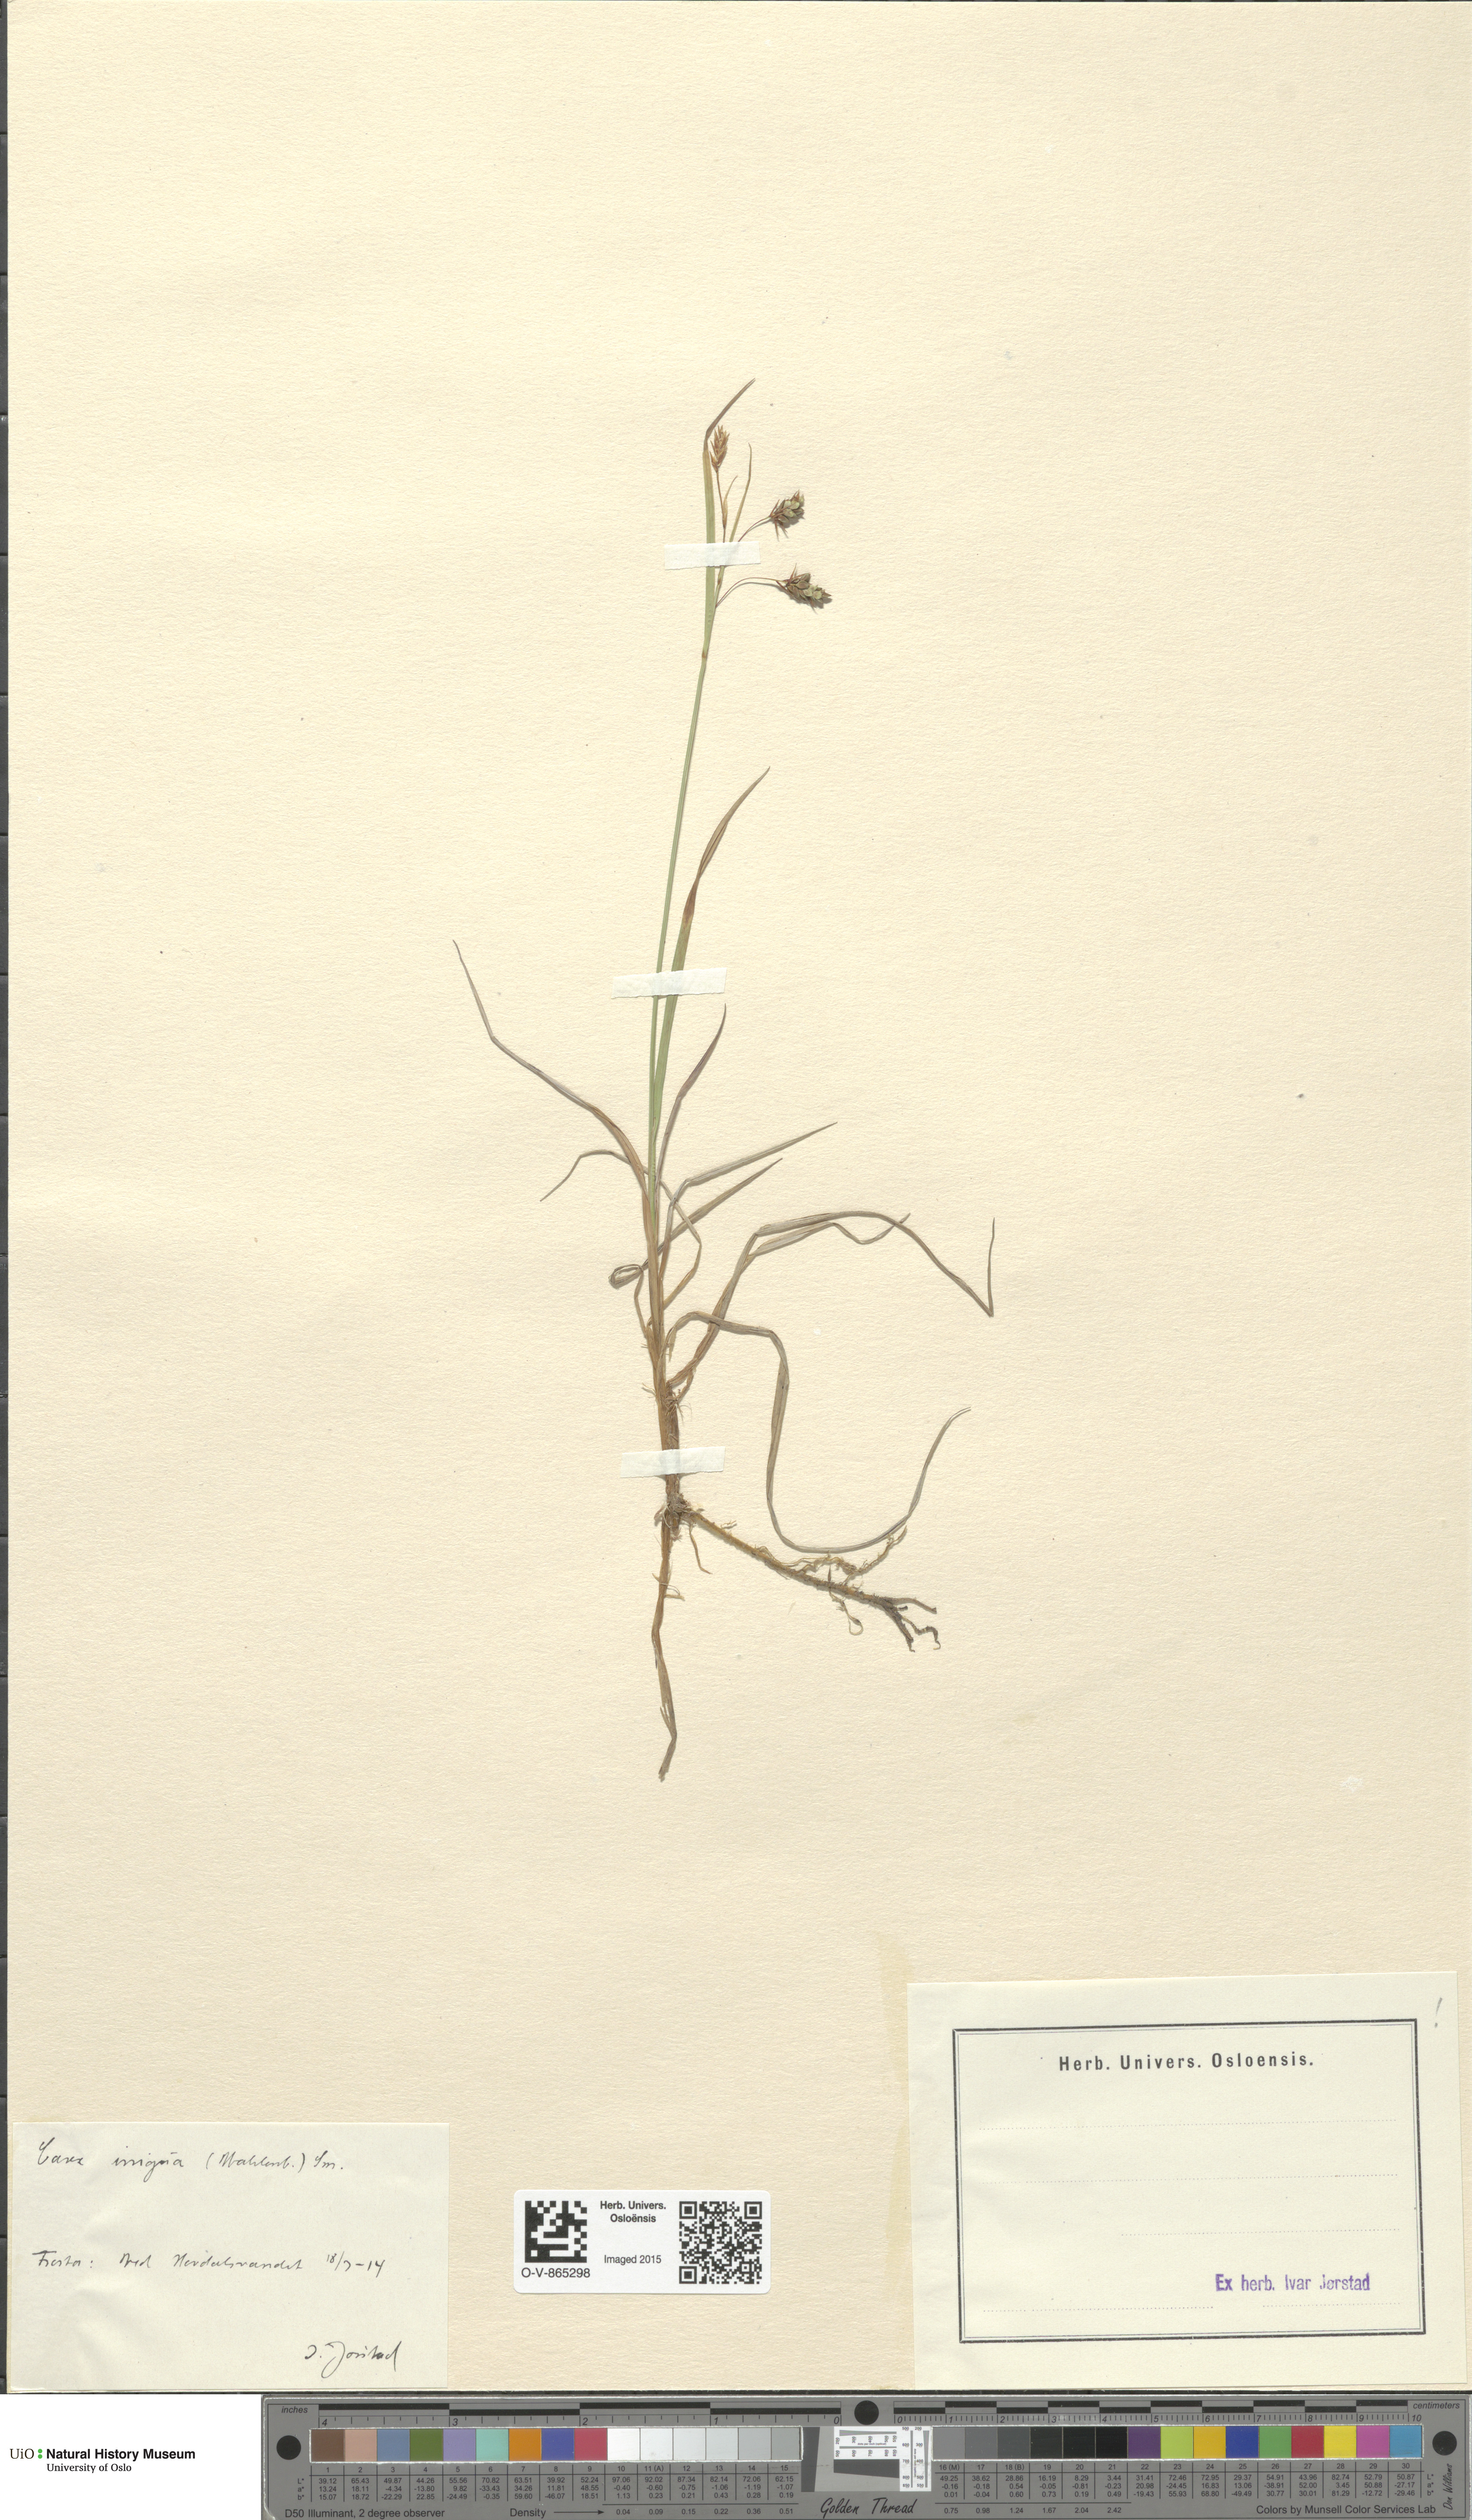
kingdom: Plantae
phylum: Tracheophyta
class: Liliopsida
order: Poales
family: Cyperaceae
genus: Carex
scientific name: Carex magellanica
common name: Bog sedge
